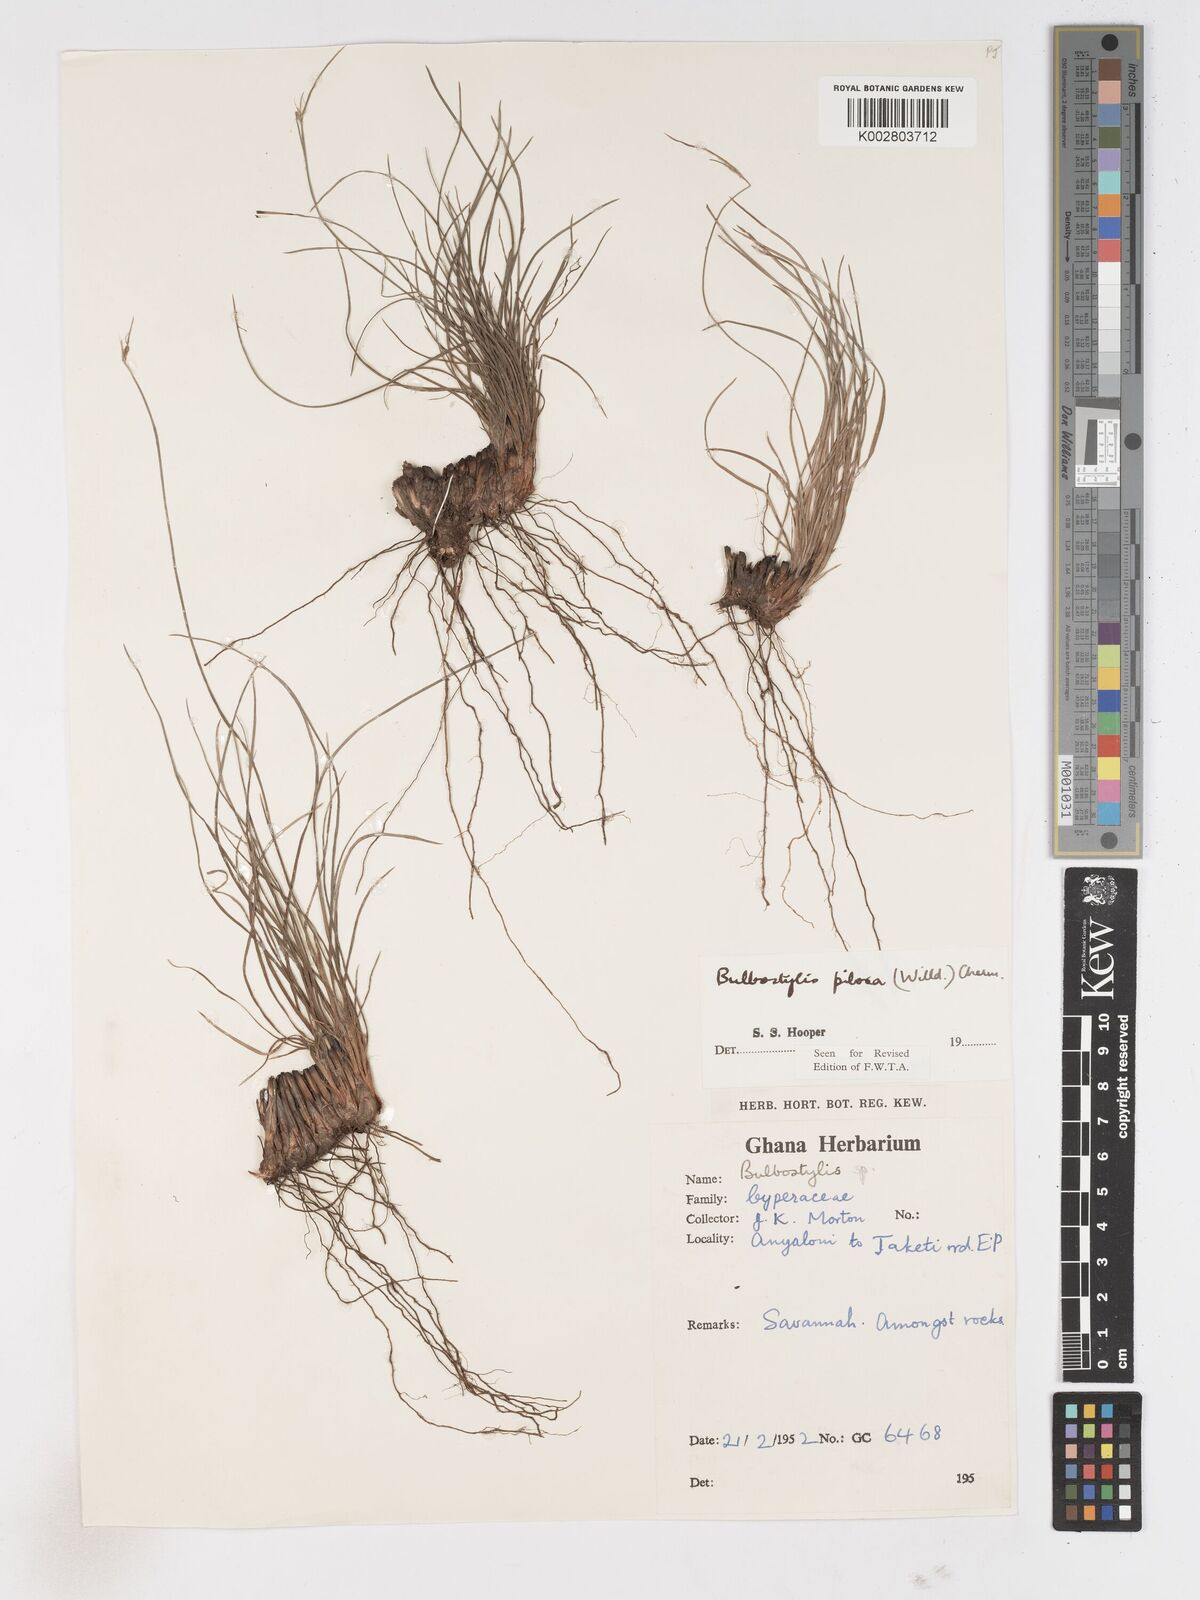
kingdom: Plantae
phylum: Tracheophyta
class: Liliopsida
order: Poales
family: Cyperaceae
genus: Bulbostylis
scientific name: Bulbostylis pilosa
